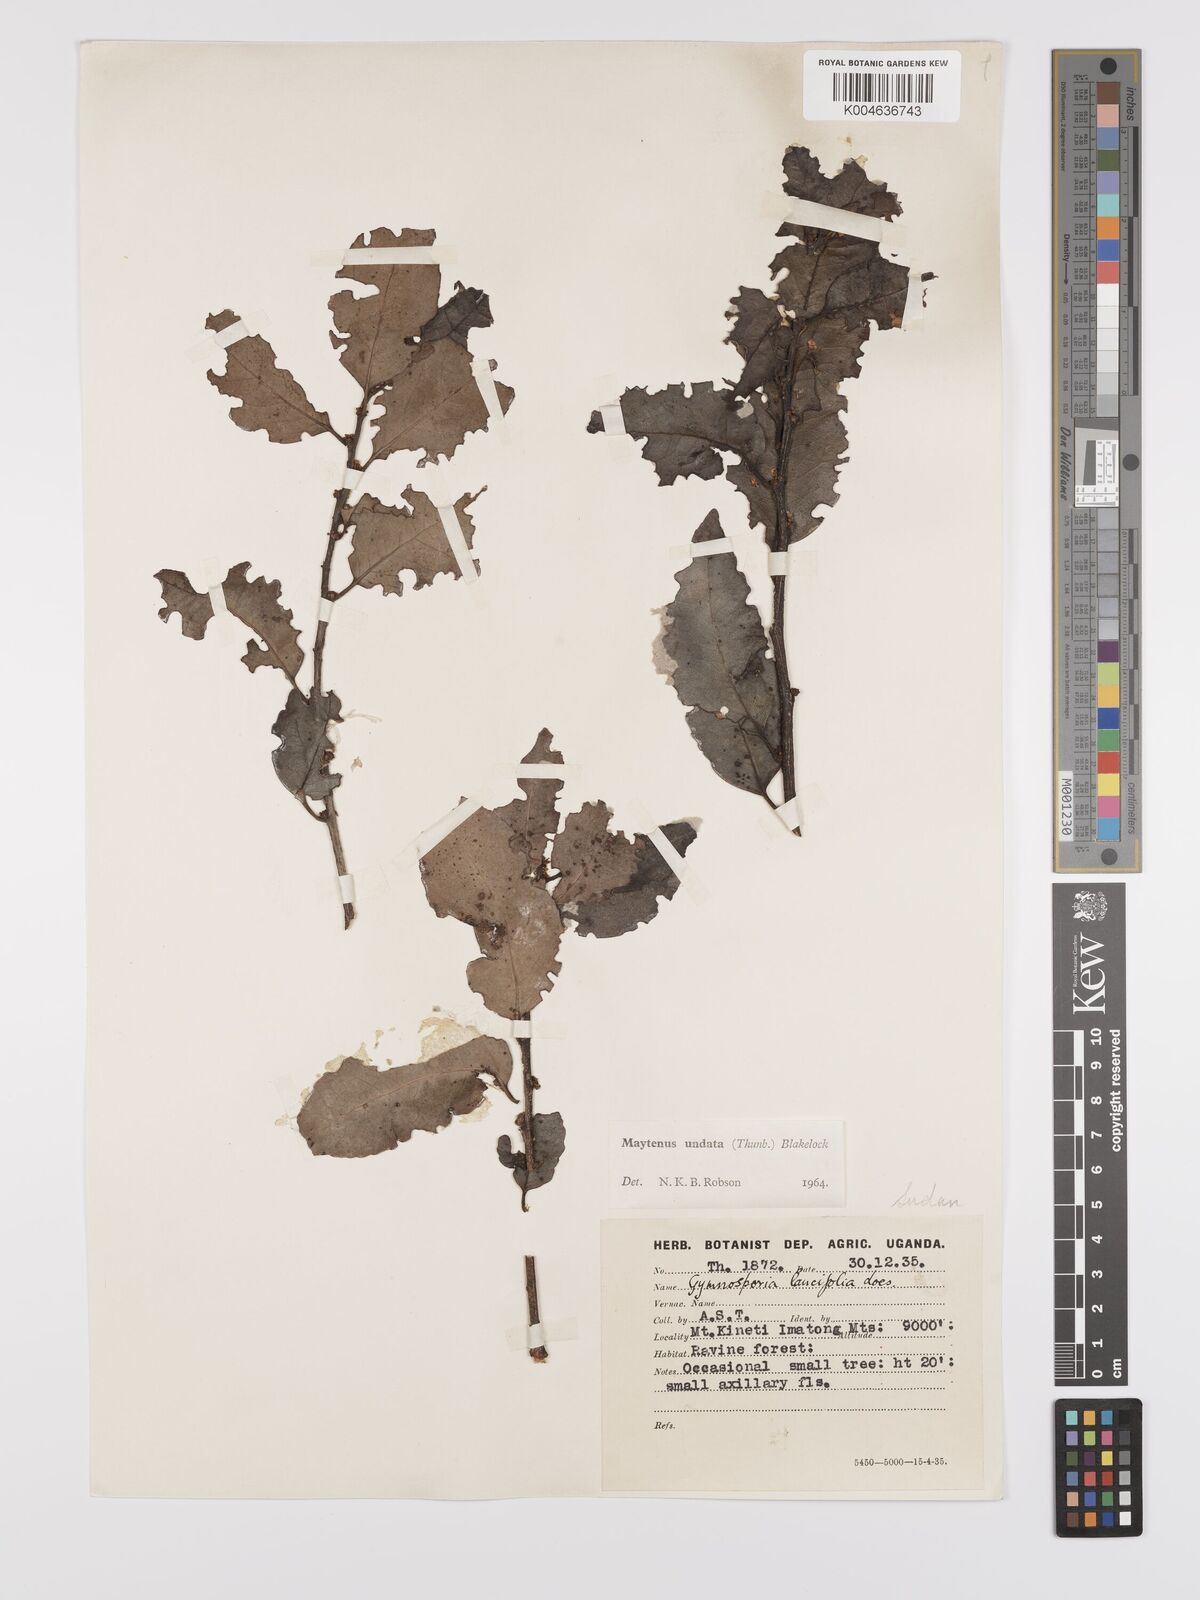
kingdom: Plantae
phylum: Tracheophyta
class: Magnoliopsida
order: Celastrales
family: Celastraceae
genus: Gymnosporia
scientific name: Gymnosporia undata
